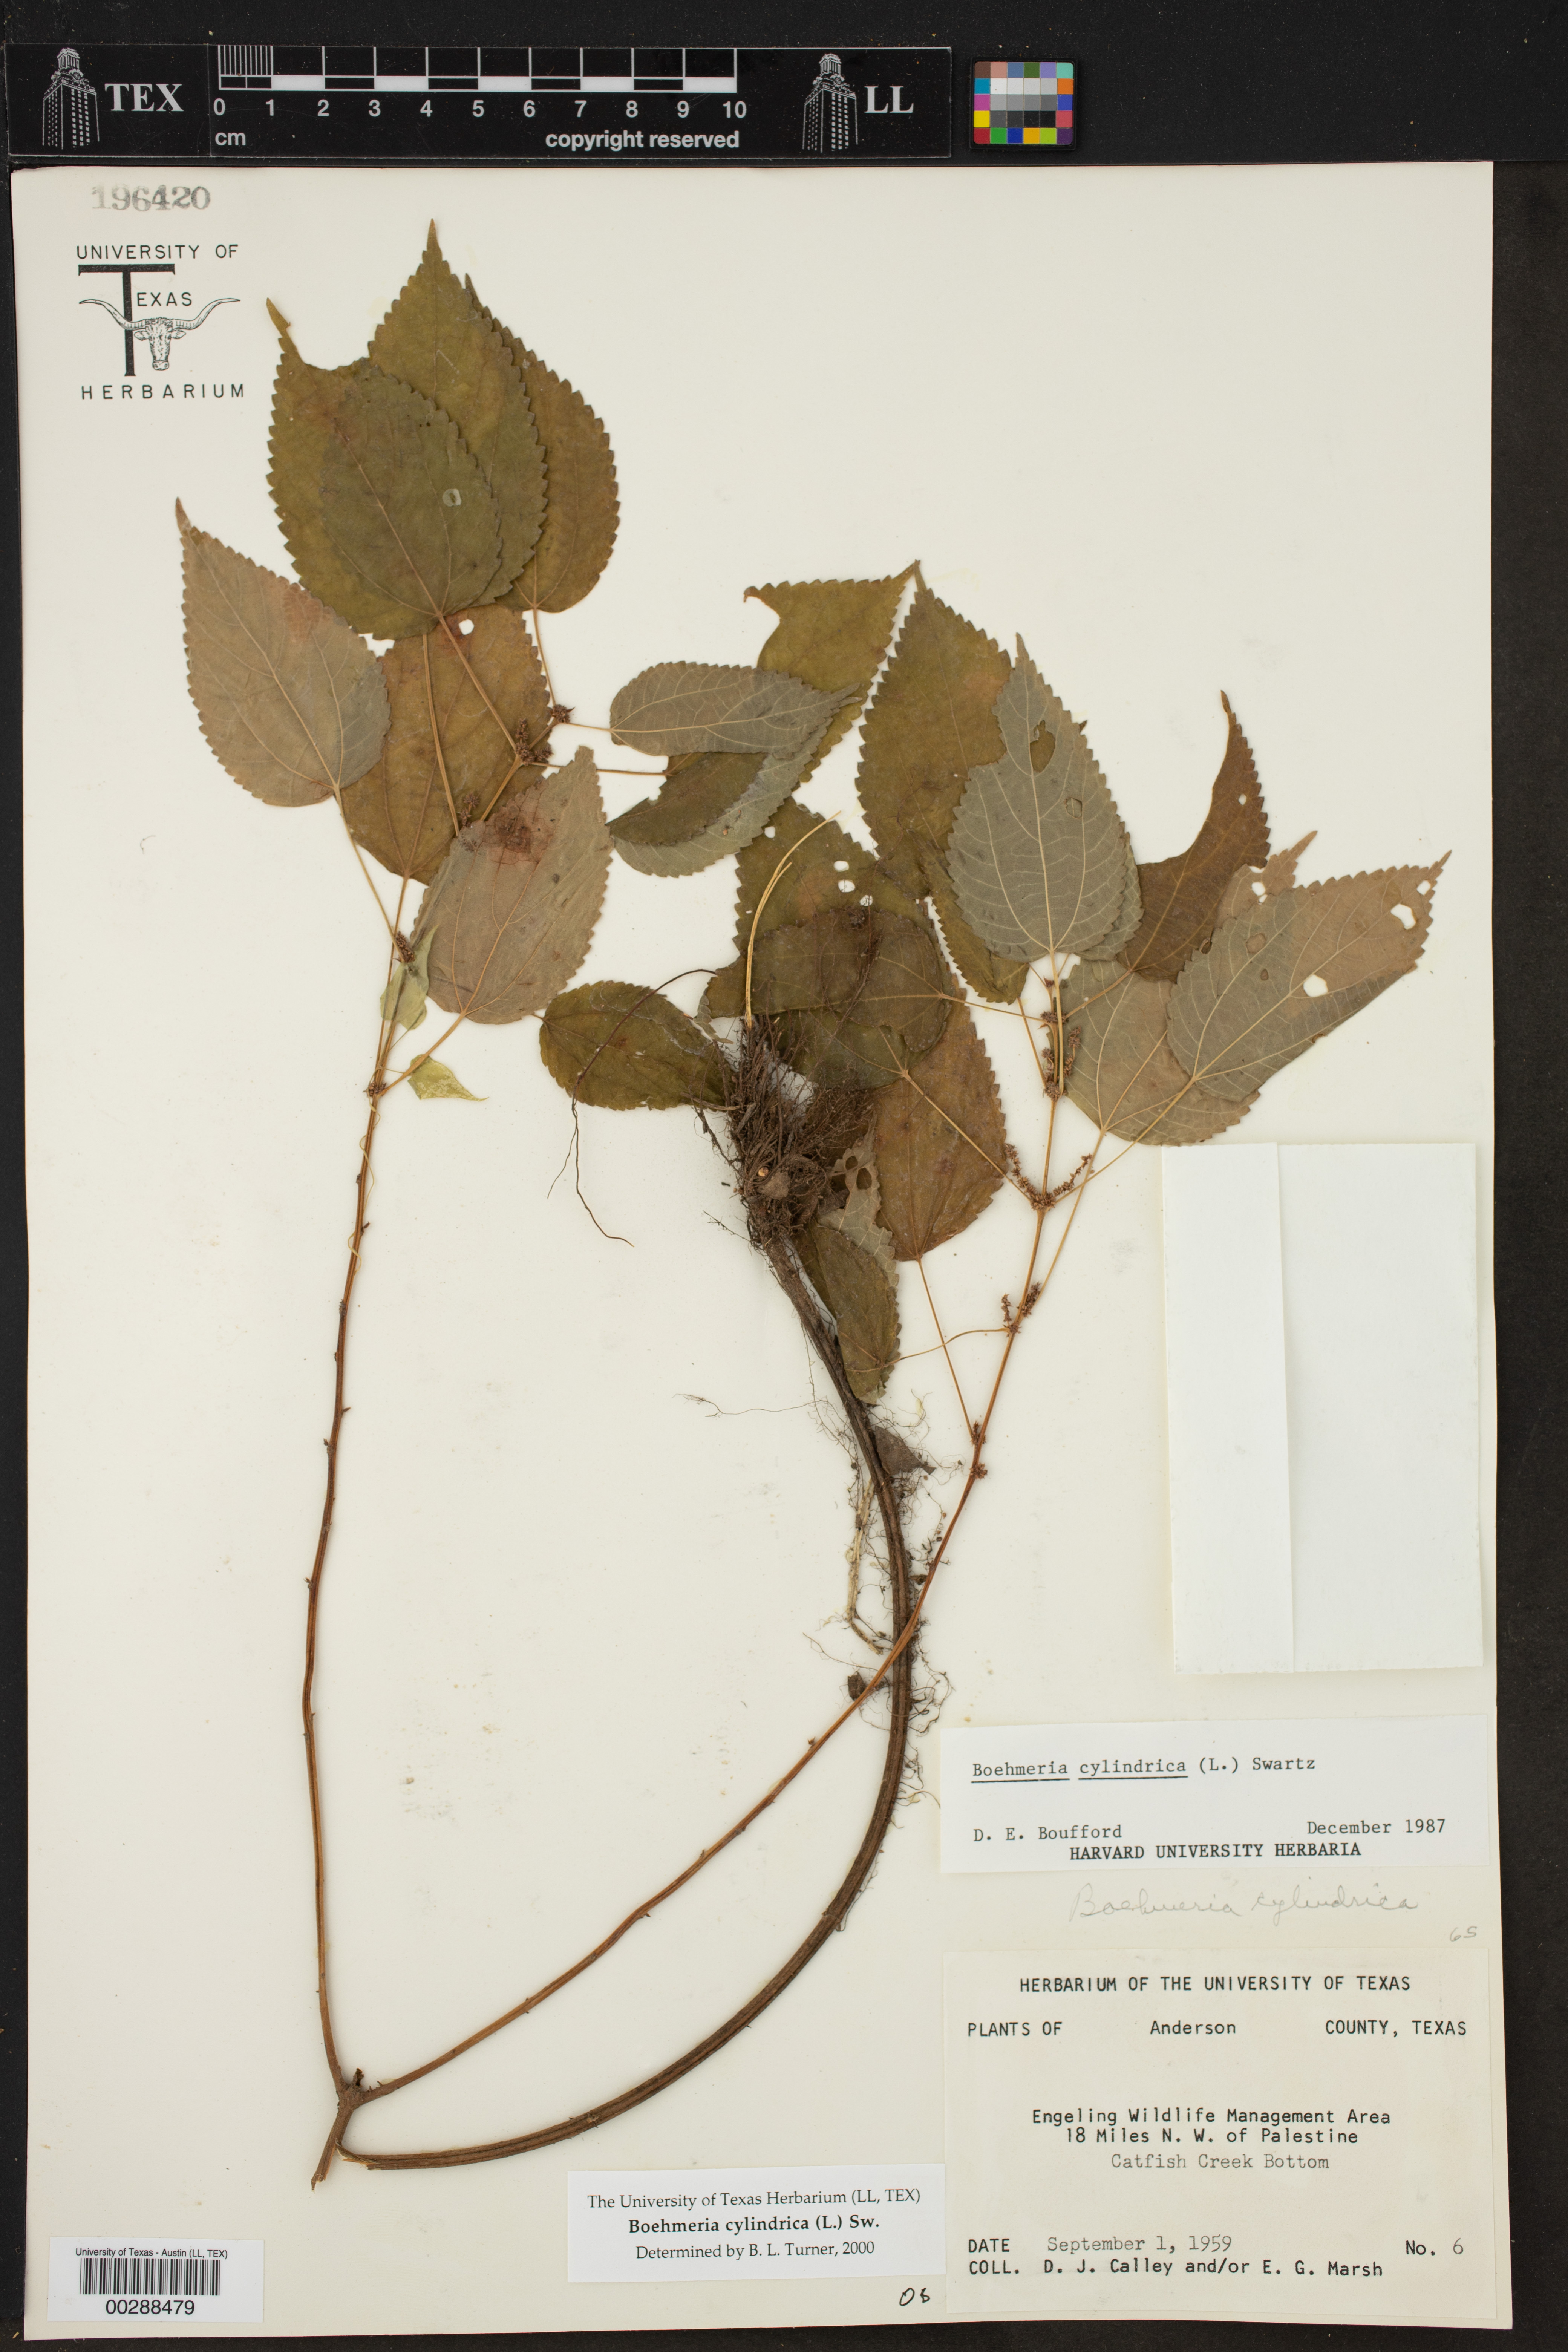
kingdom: Plantae
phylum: Tracheophyta
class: Magnoliopsida
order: Rosales
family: Urticaceae
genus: Boehmeria
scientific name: Boehmeria cylindrica
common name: Bog-hemp
